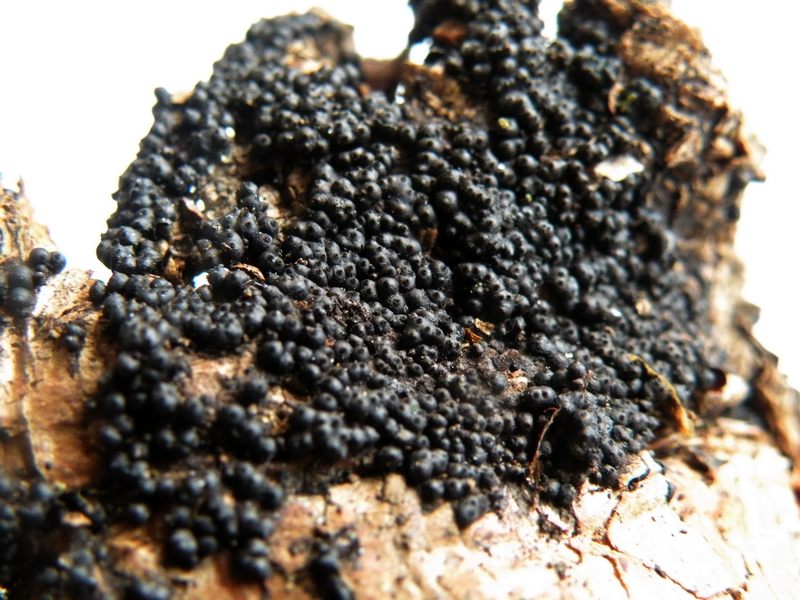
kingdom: Fungi
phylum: Ascomycota
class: Sordariomycetes
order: Xylariales
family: Xylariaceae
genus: Rosellinia
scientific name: Rosellinia
